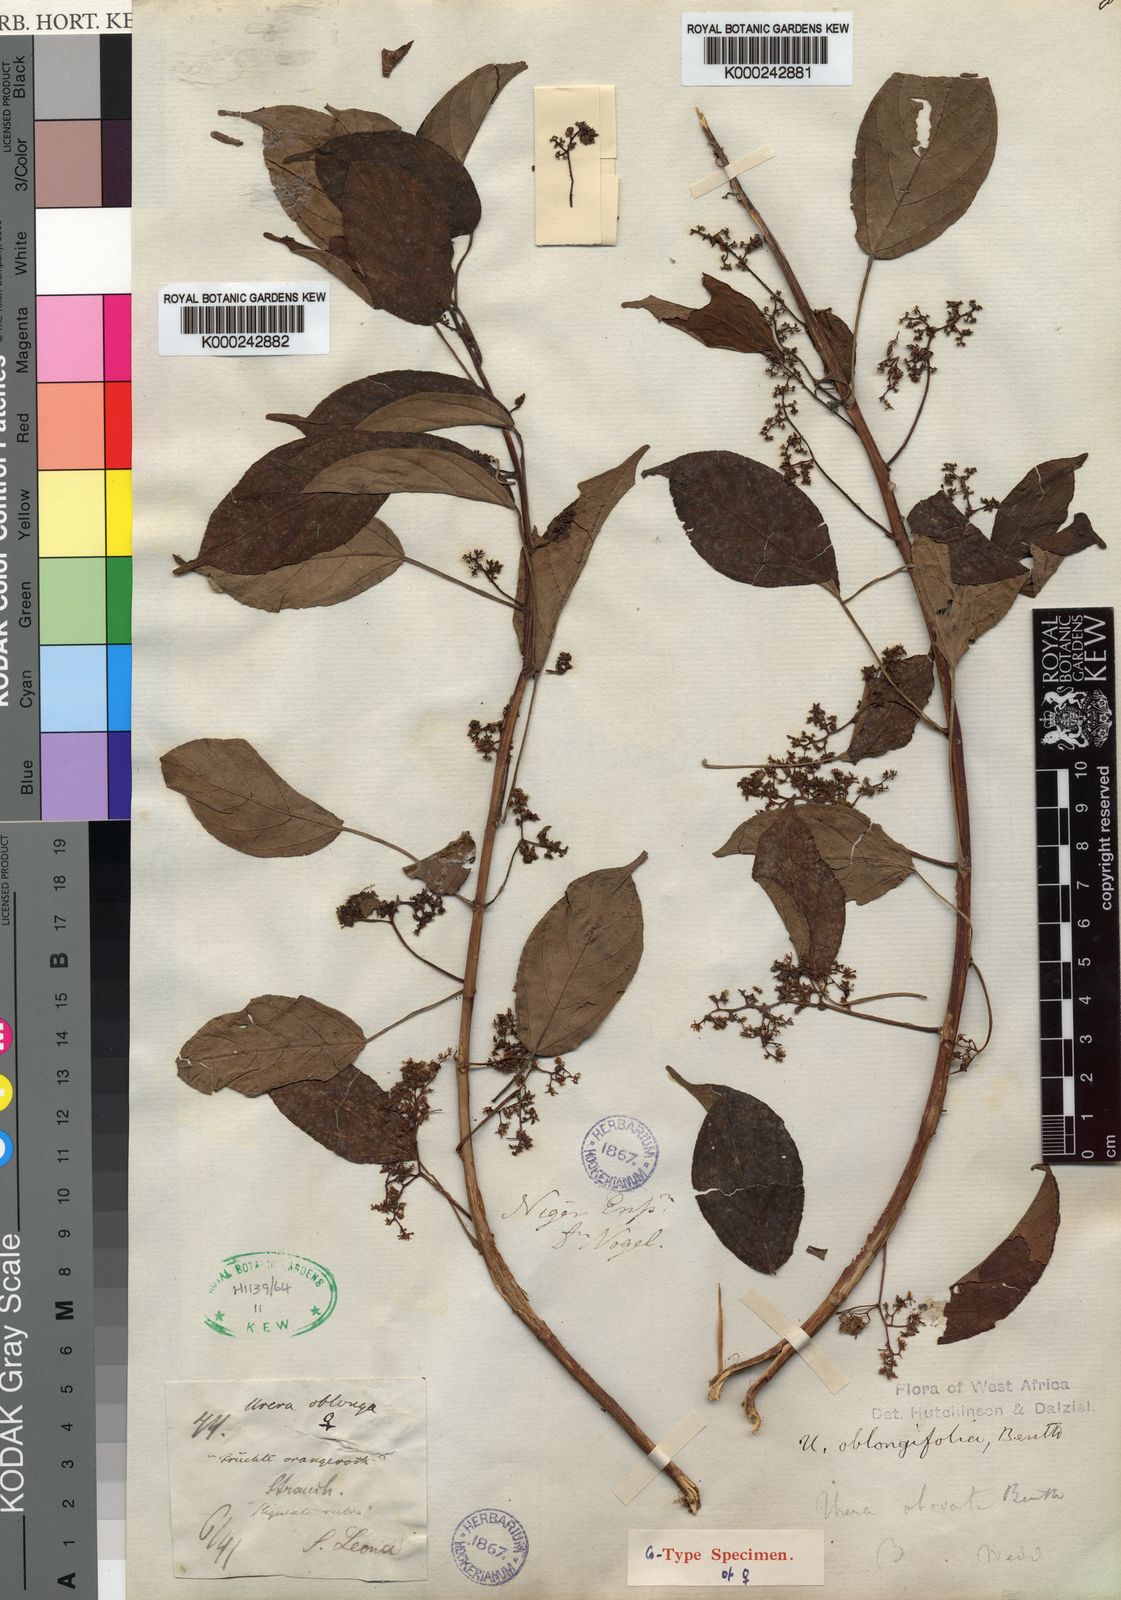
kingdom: Plantae
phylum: Tracheophyta
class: Magnoliopsida
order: Rosales
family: Urticaceae
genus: Scepocarpus
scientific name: Scepocarpus oblongifolius
